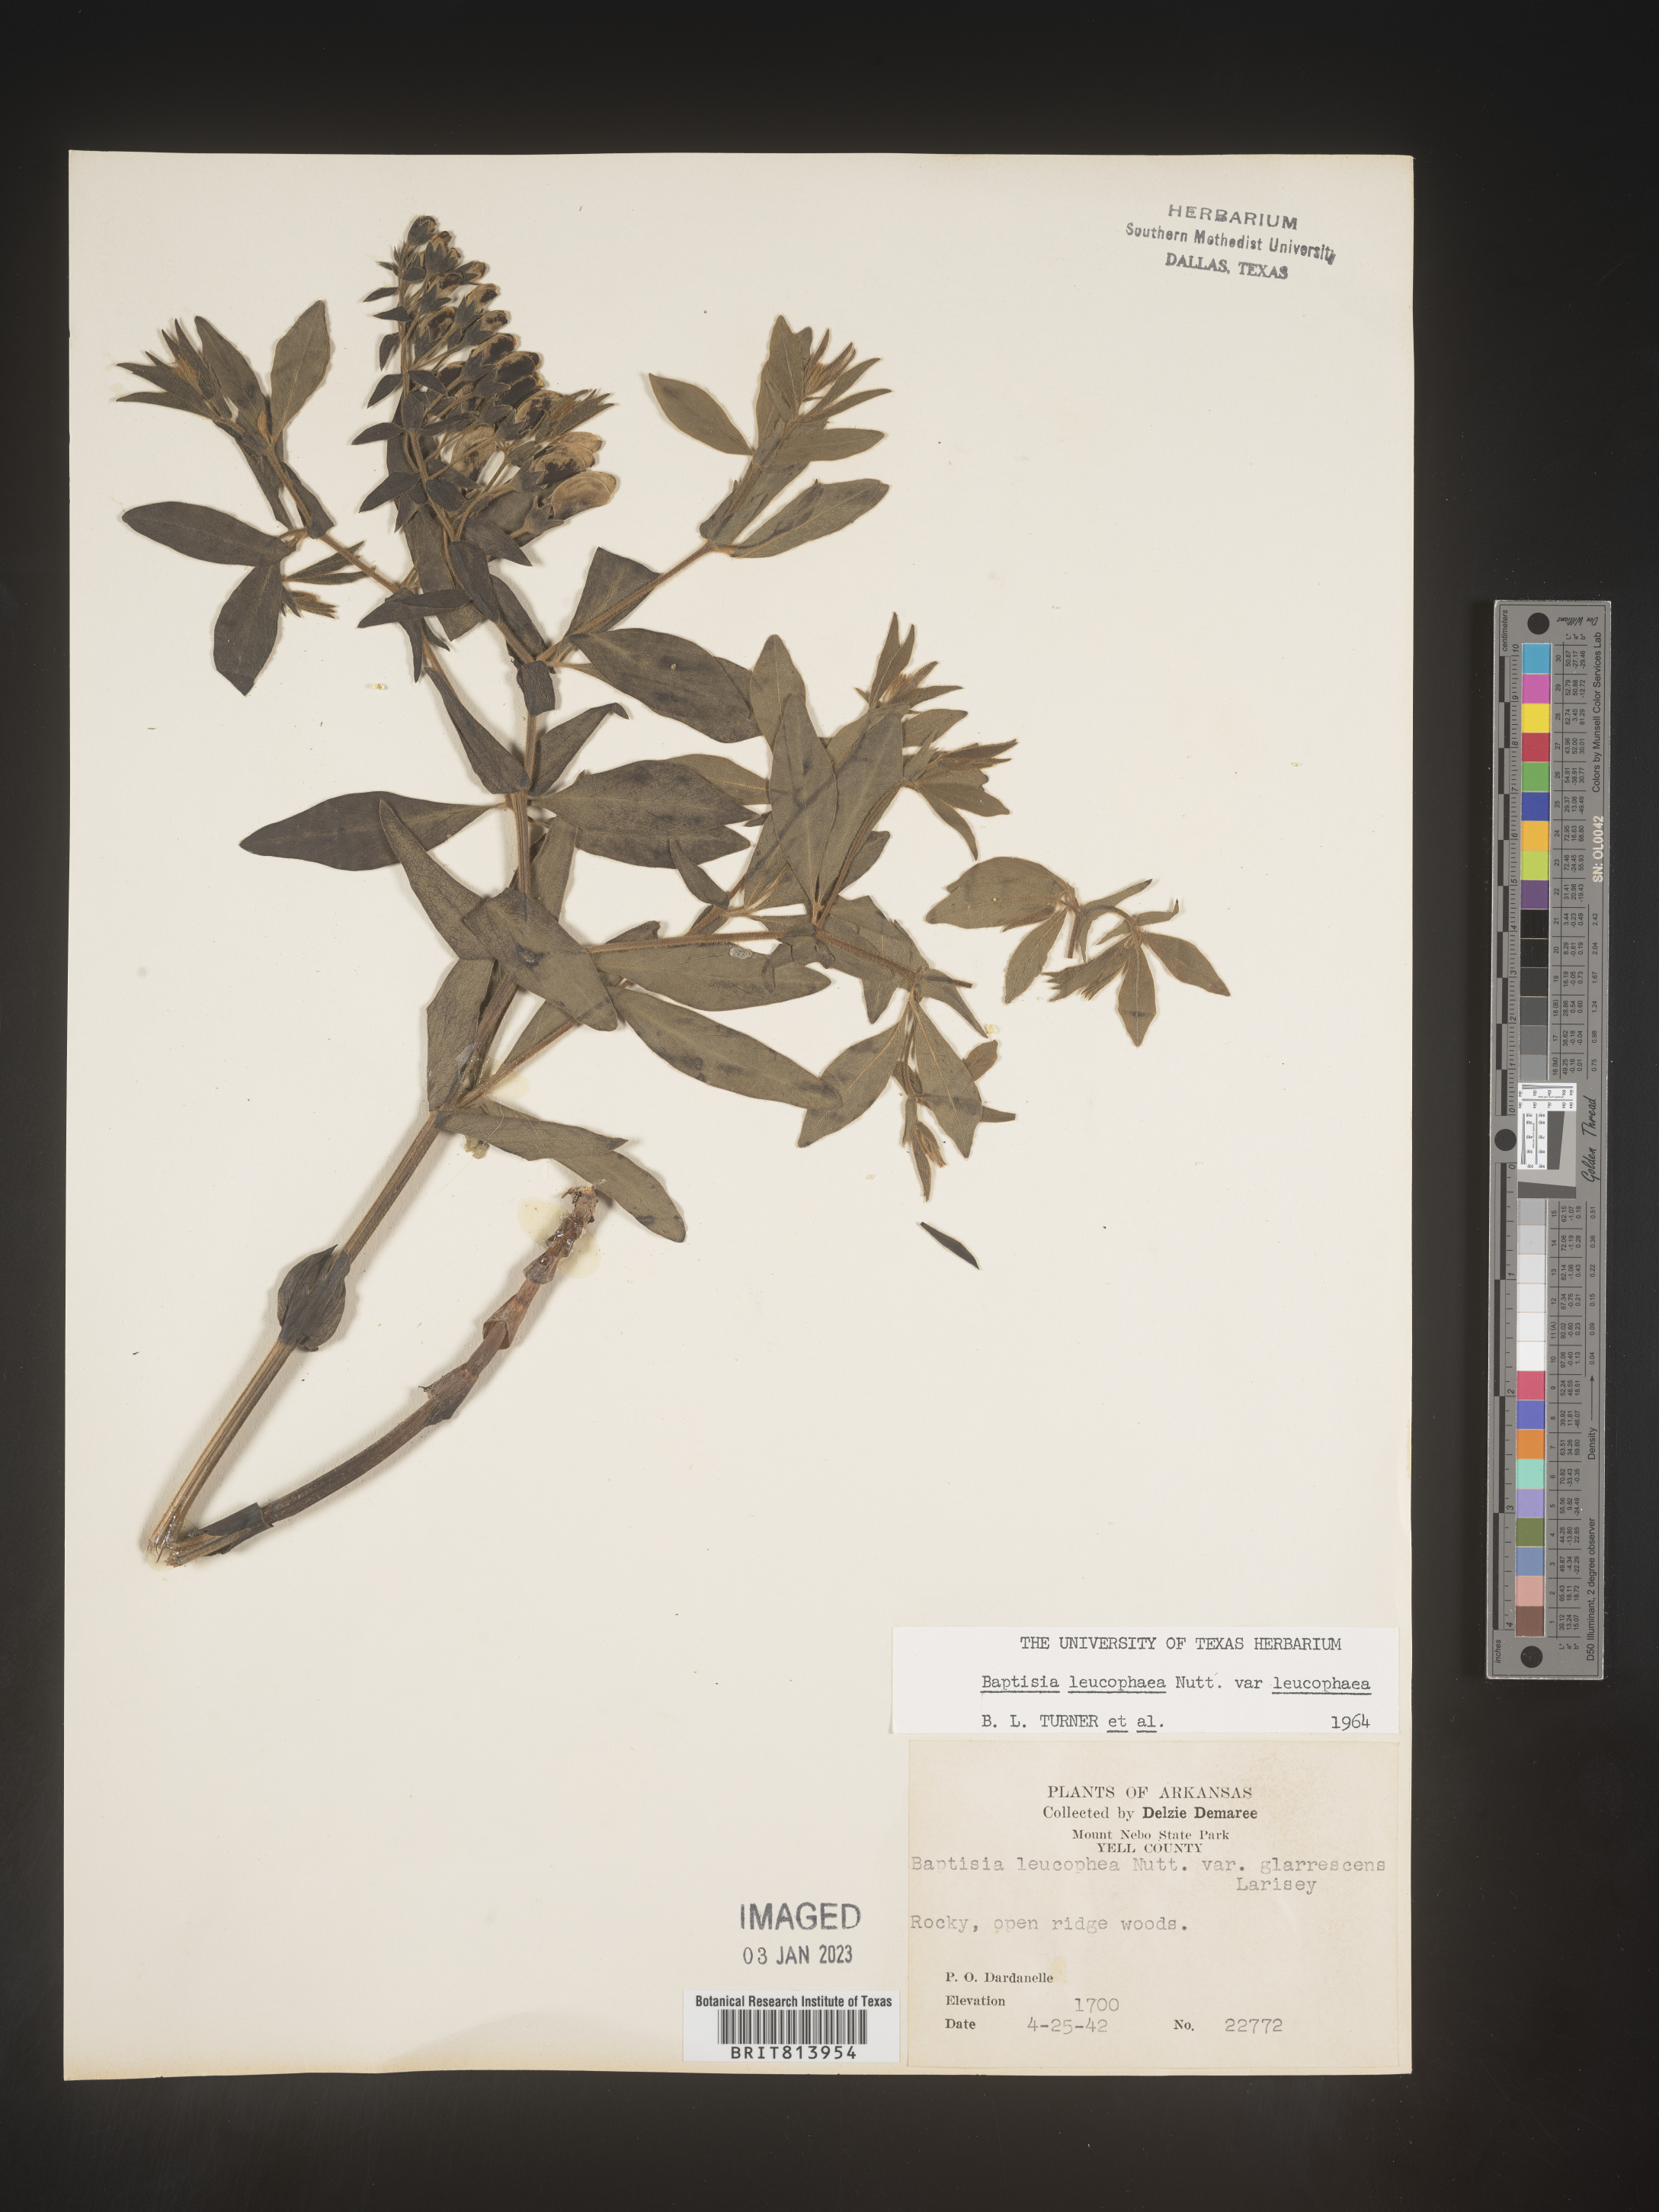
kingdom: Plantae
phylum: Tracheophyta
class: Magnoliopsida
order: Fabales
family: Fabaceae
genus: Baptisia
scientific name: Baptisia bracteata
